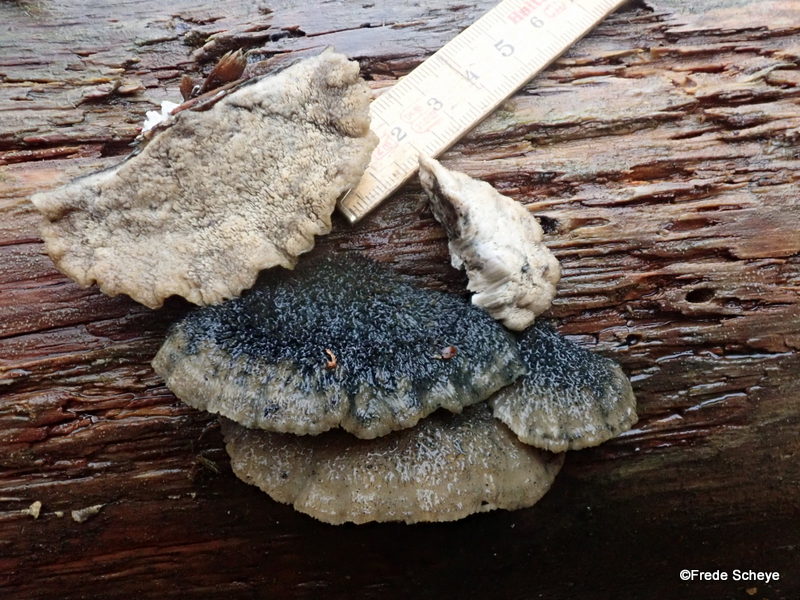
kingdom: Fungi
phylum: Basidiomycota
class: Agaricomycetes
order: Polyporales
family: Polyporaceae
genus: Cyanosporus
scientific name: Cyanosporus caesius
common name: blålig kødporesvamp
